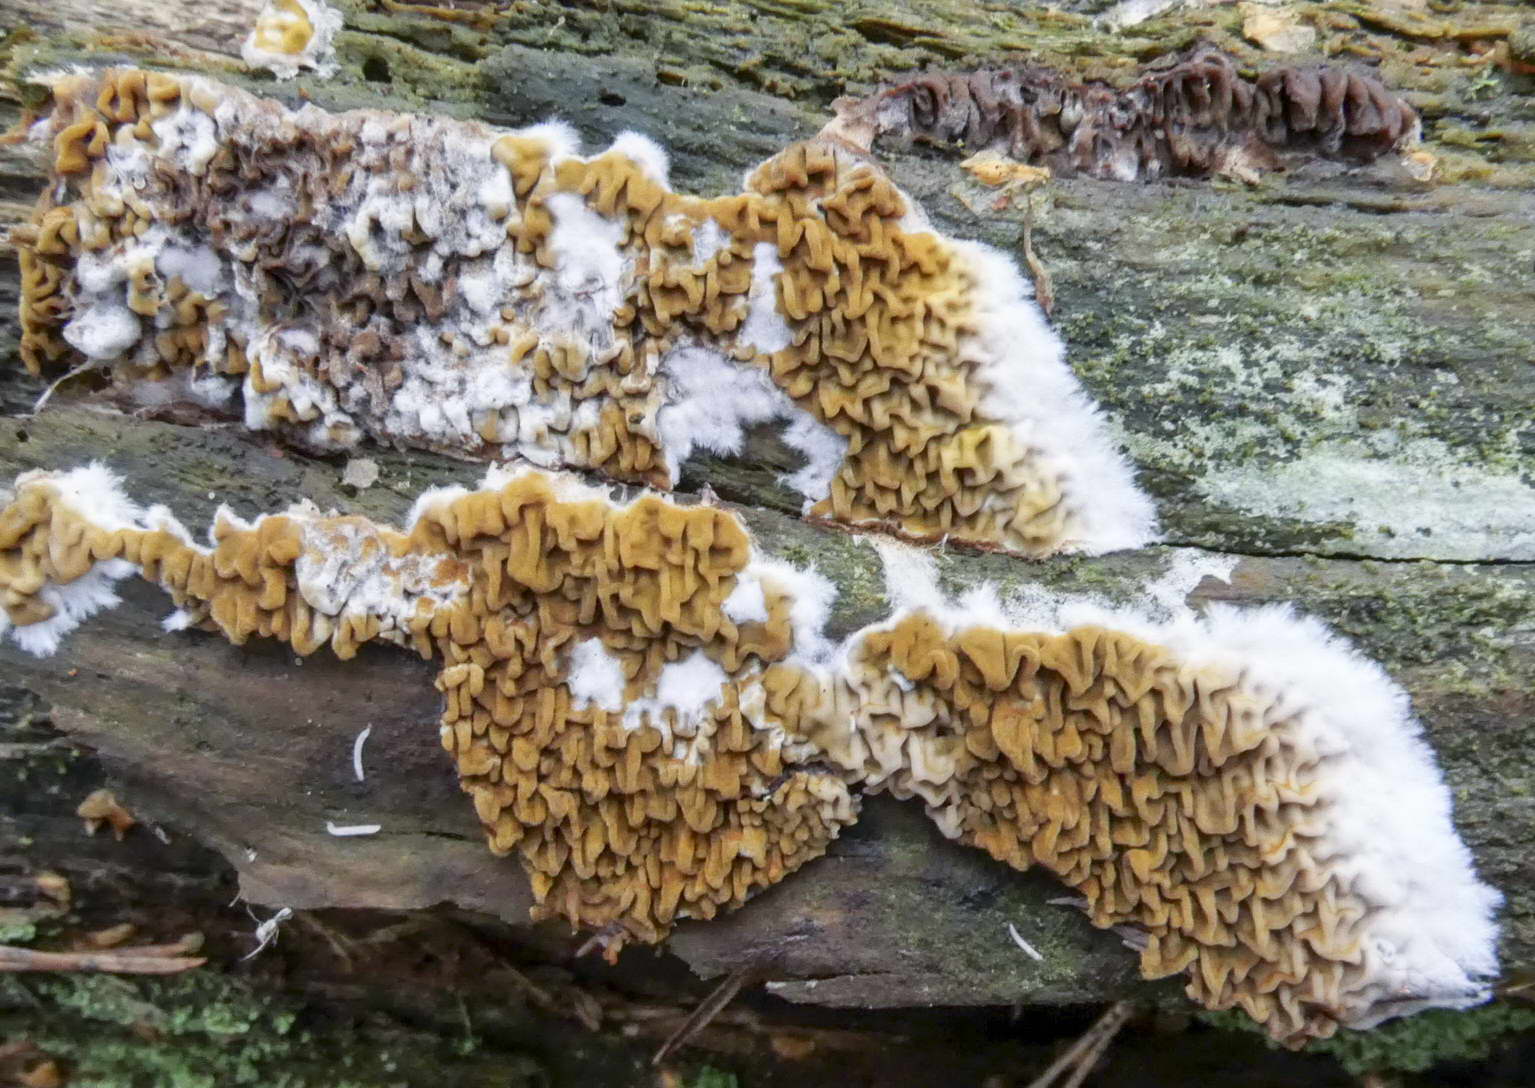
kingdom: Fungi
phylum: Basidiomycota
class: Agaricomycetes
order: Boletales
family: Serpulaceae
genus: Serpula
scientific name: Serpula himantioides
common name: tyndkødet hussvamp
